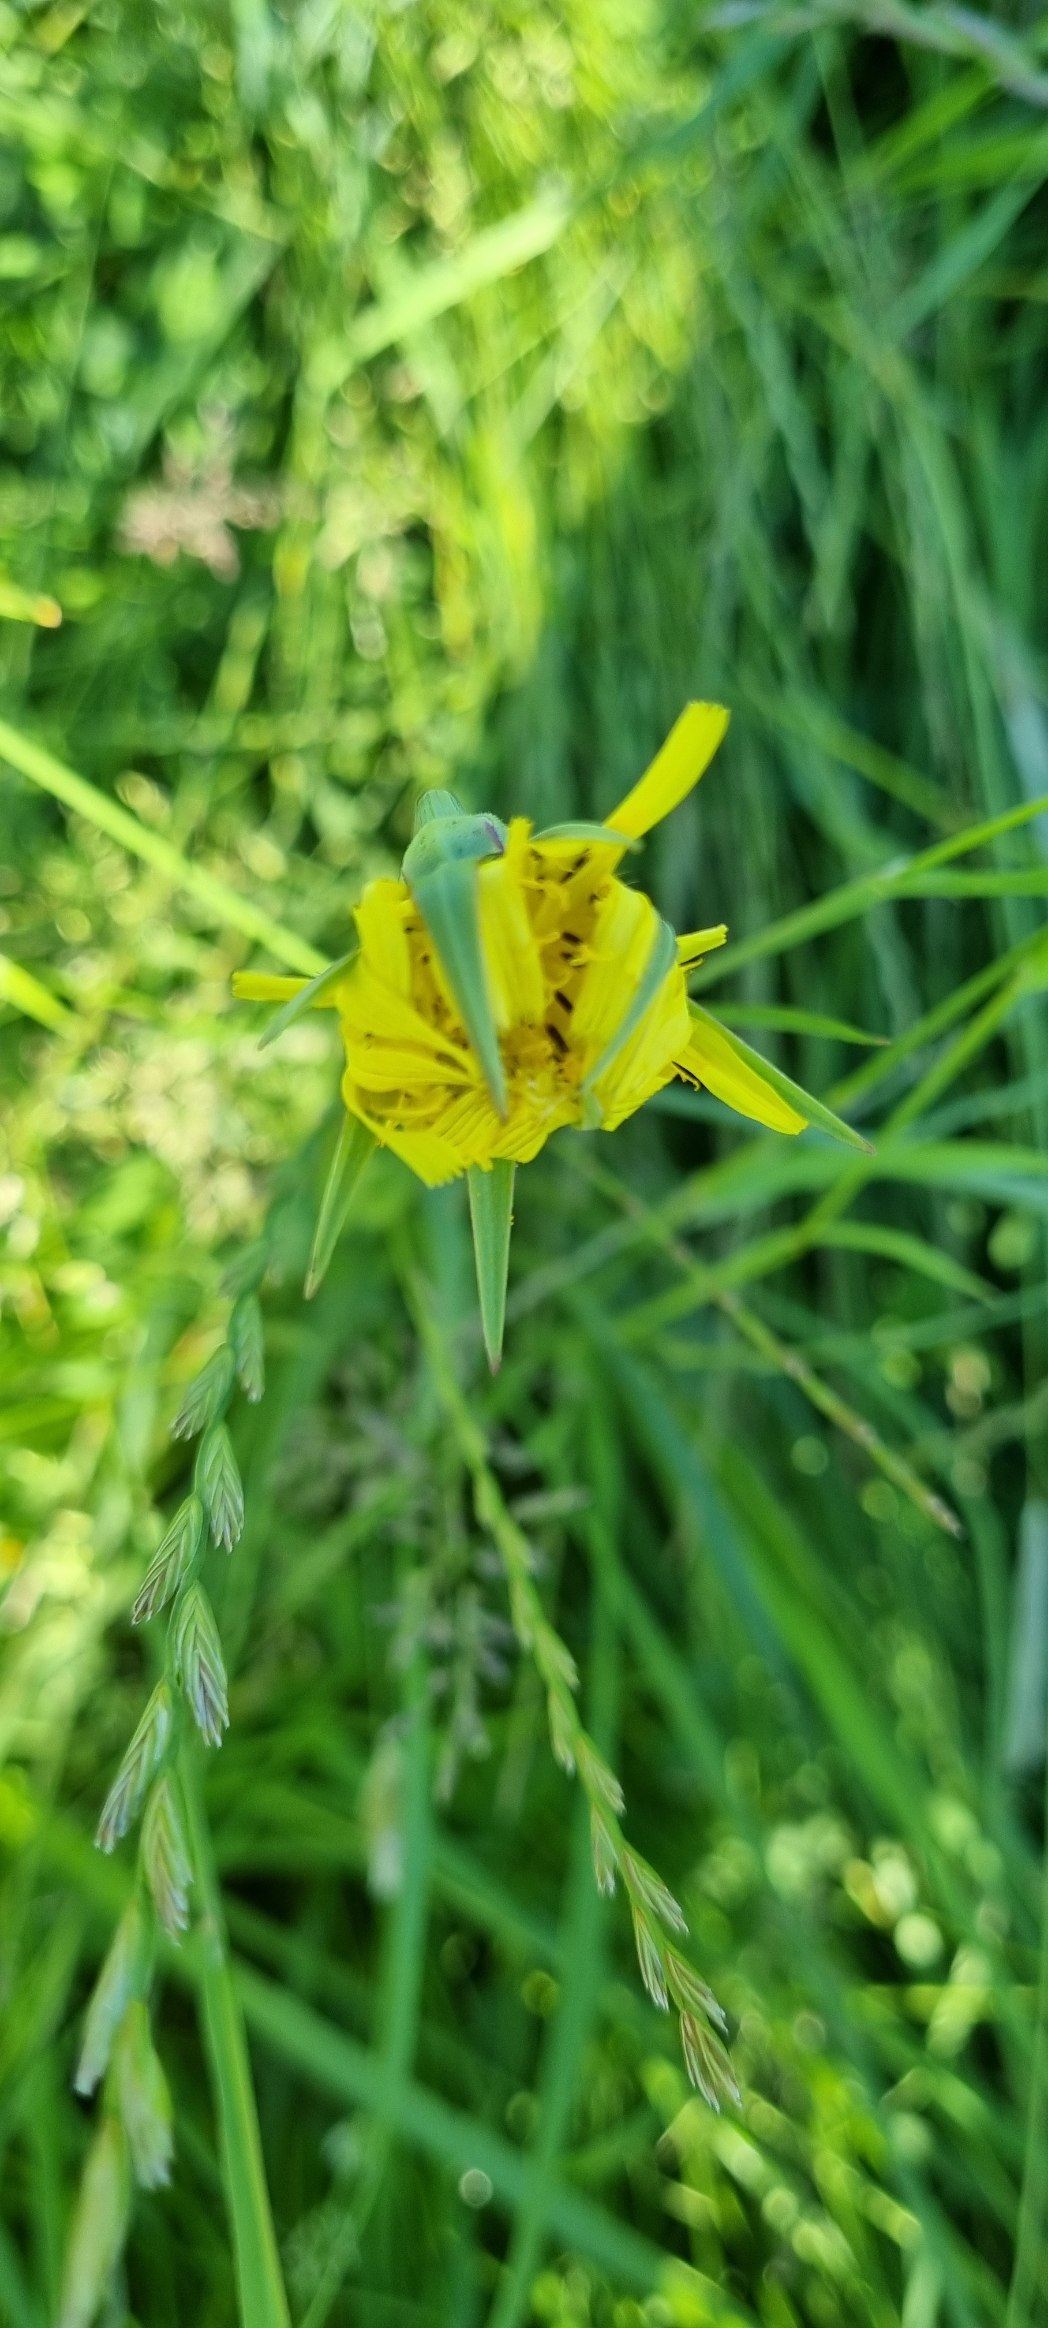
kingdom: Plantae
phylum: Tracheophyta
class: Magnoliopsida
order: Asterales
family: Asteraceae
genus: Tragopogon
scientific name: Tragopogon minor
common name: Småkronet gedeskæg
